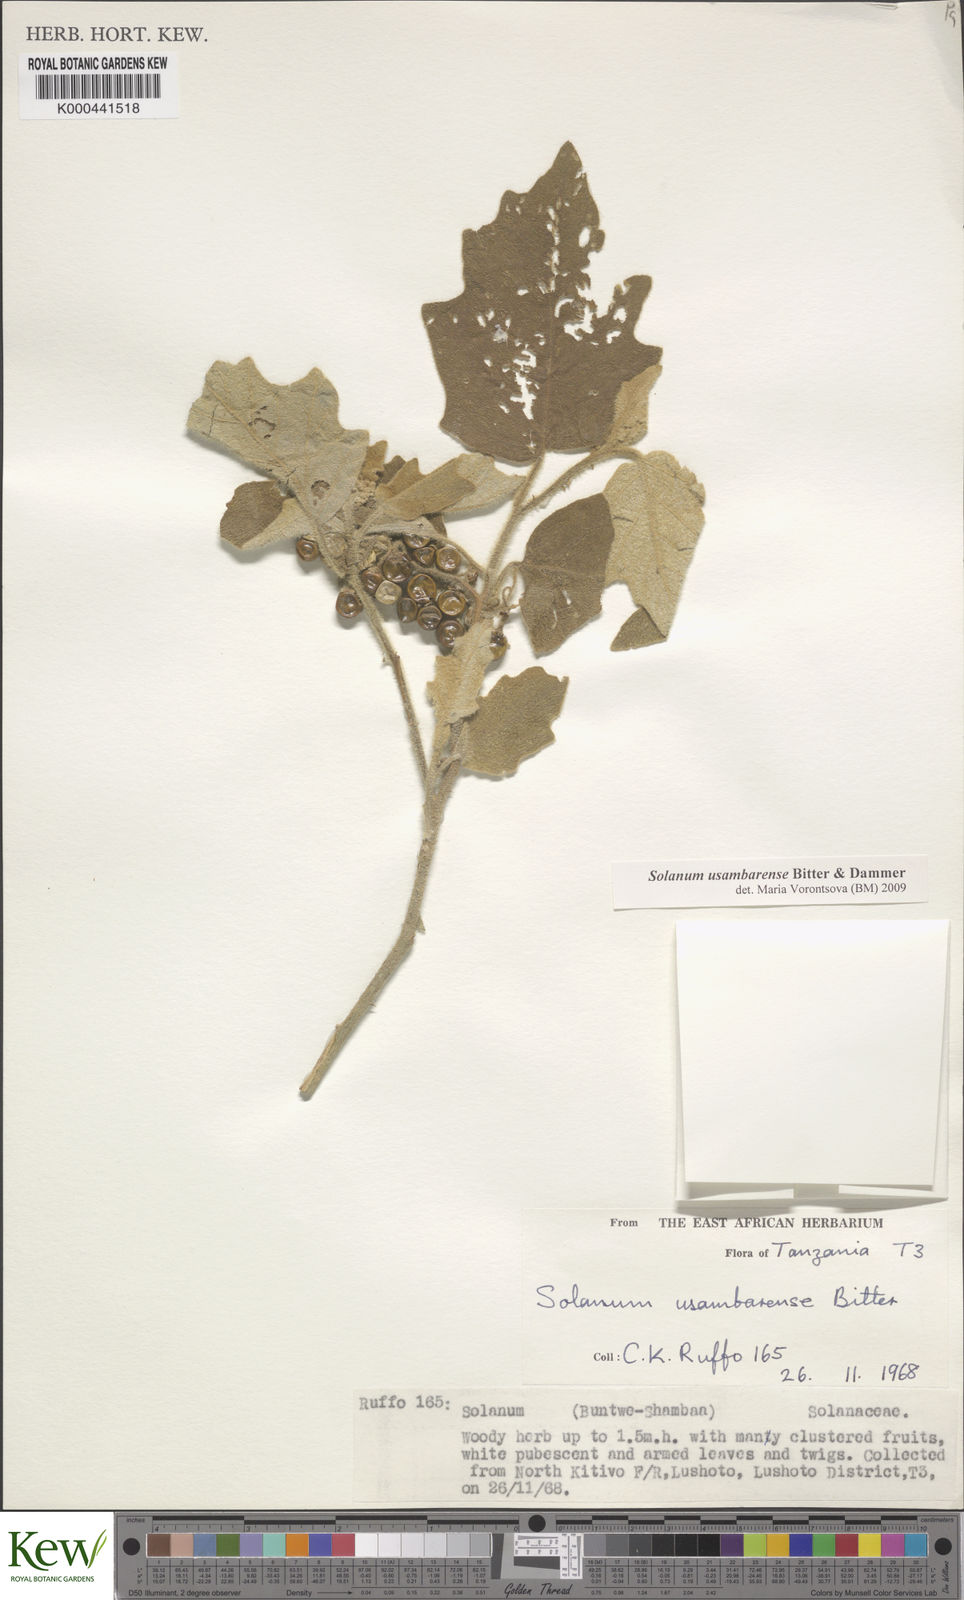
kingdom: Plantae
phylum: Tracheophyta
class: Magnoliopsida
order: Solanales
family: Solanaceae
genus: Solanum
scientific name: Solanum anguivi
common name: Forest bitterberry
